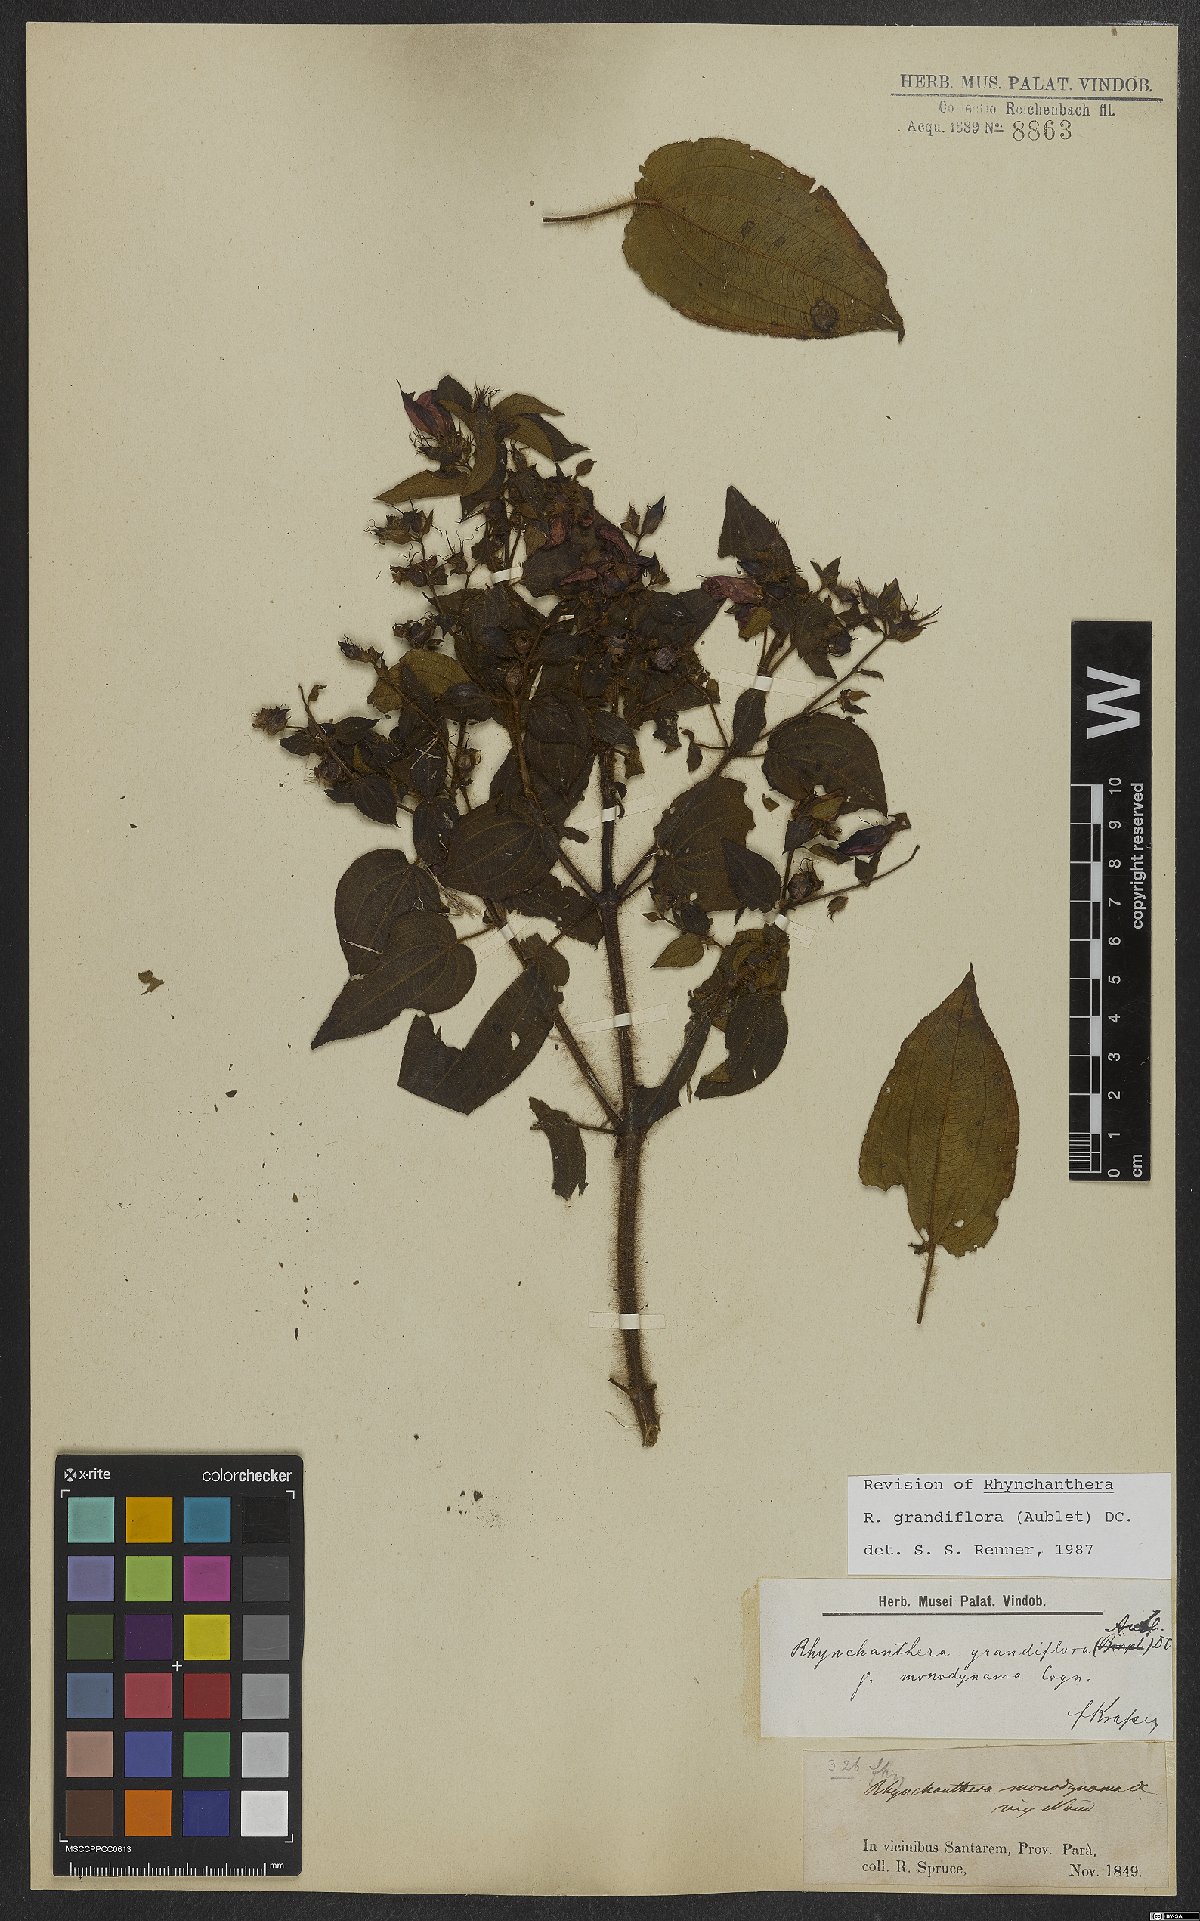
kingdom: Plantae
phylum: Tracheophyta
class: Magnoliopsida
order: Myrtales
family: Melastomataceae
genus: Rhynchanthera
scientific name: Rhynchanthera grandiflora
